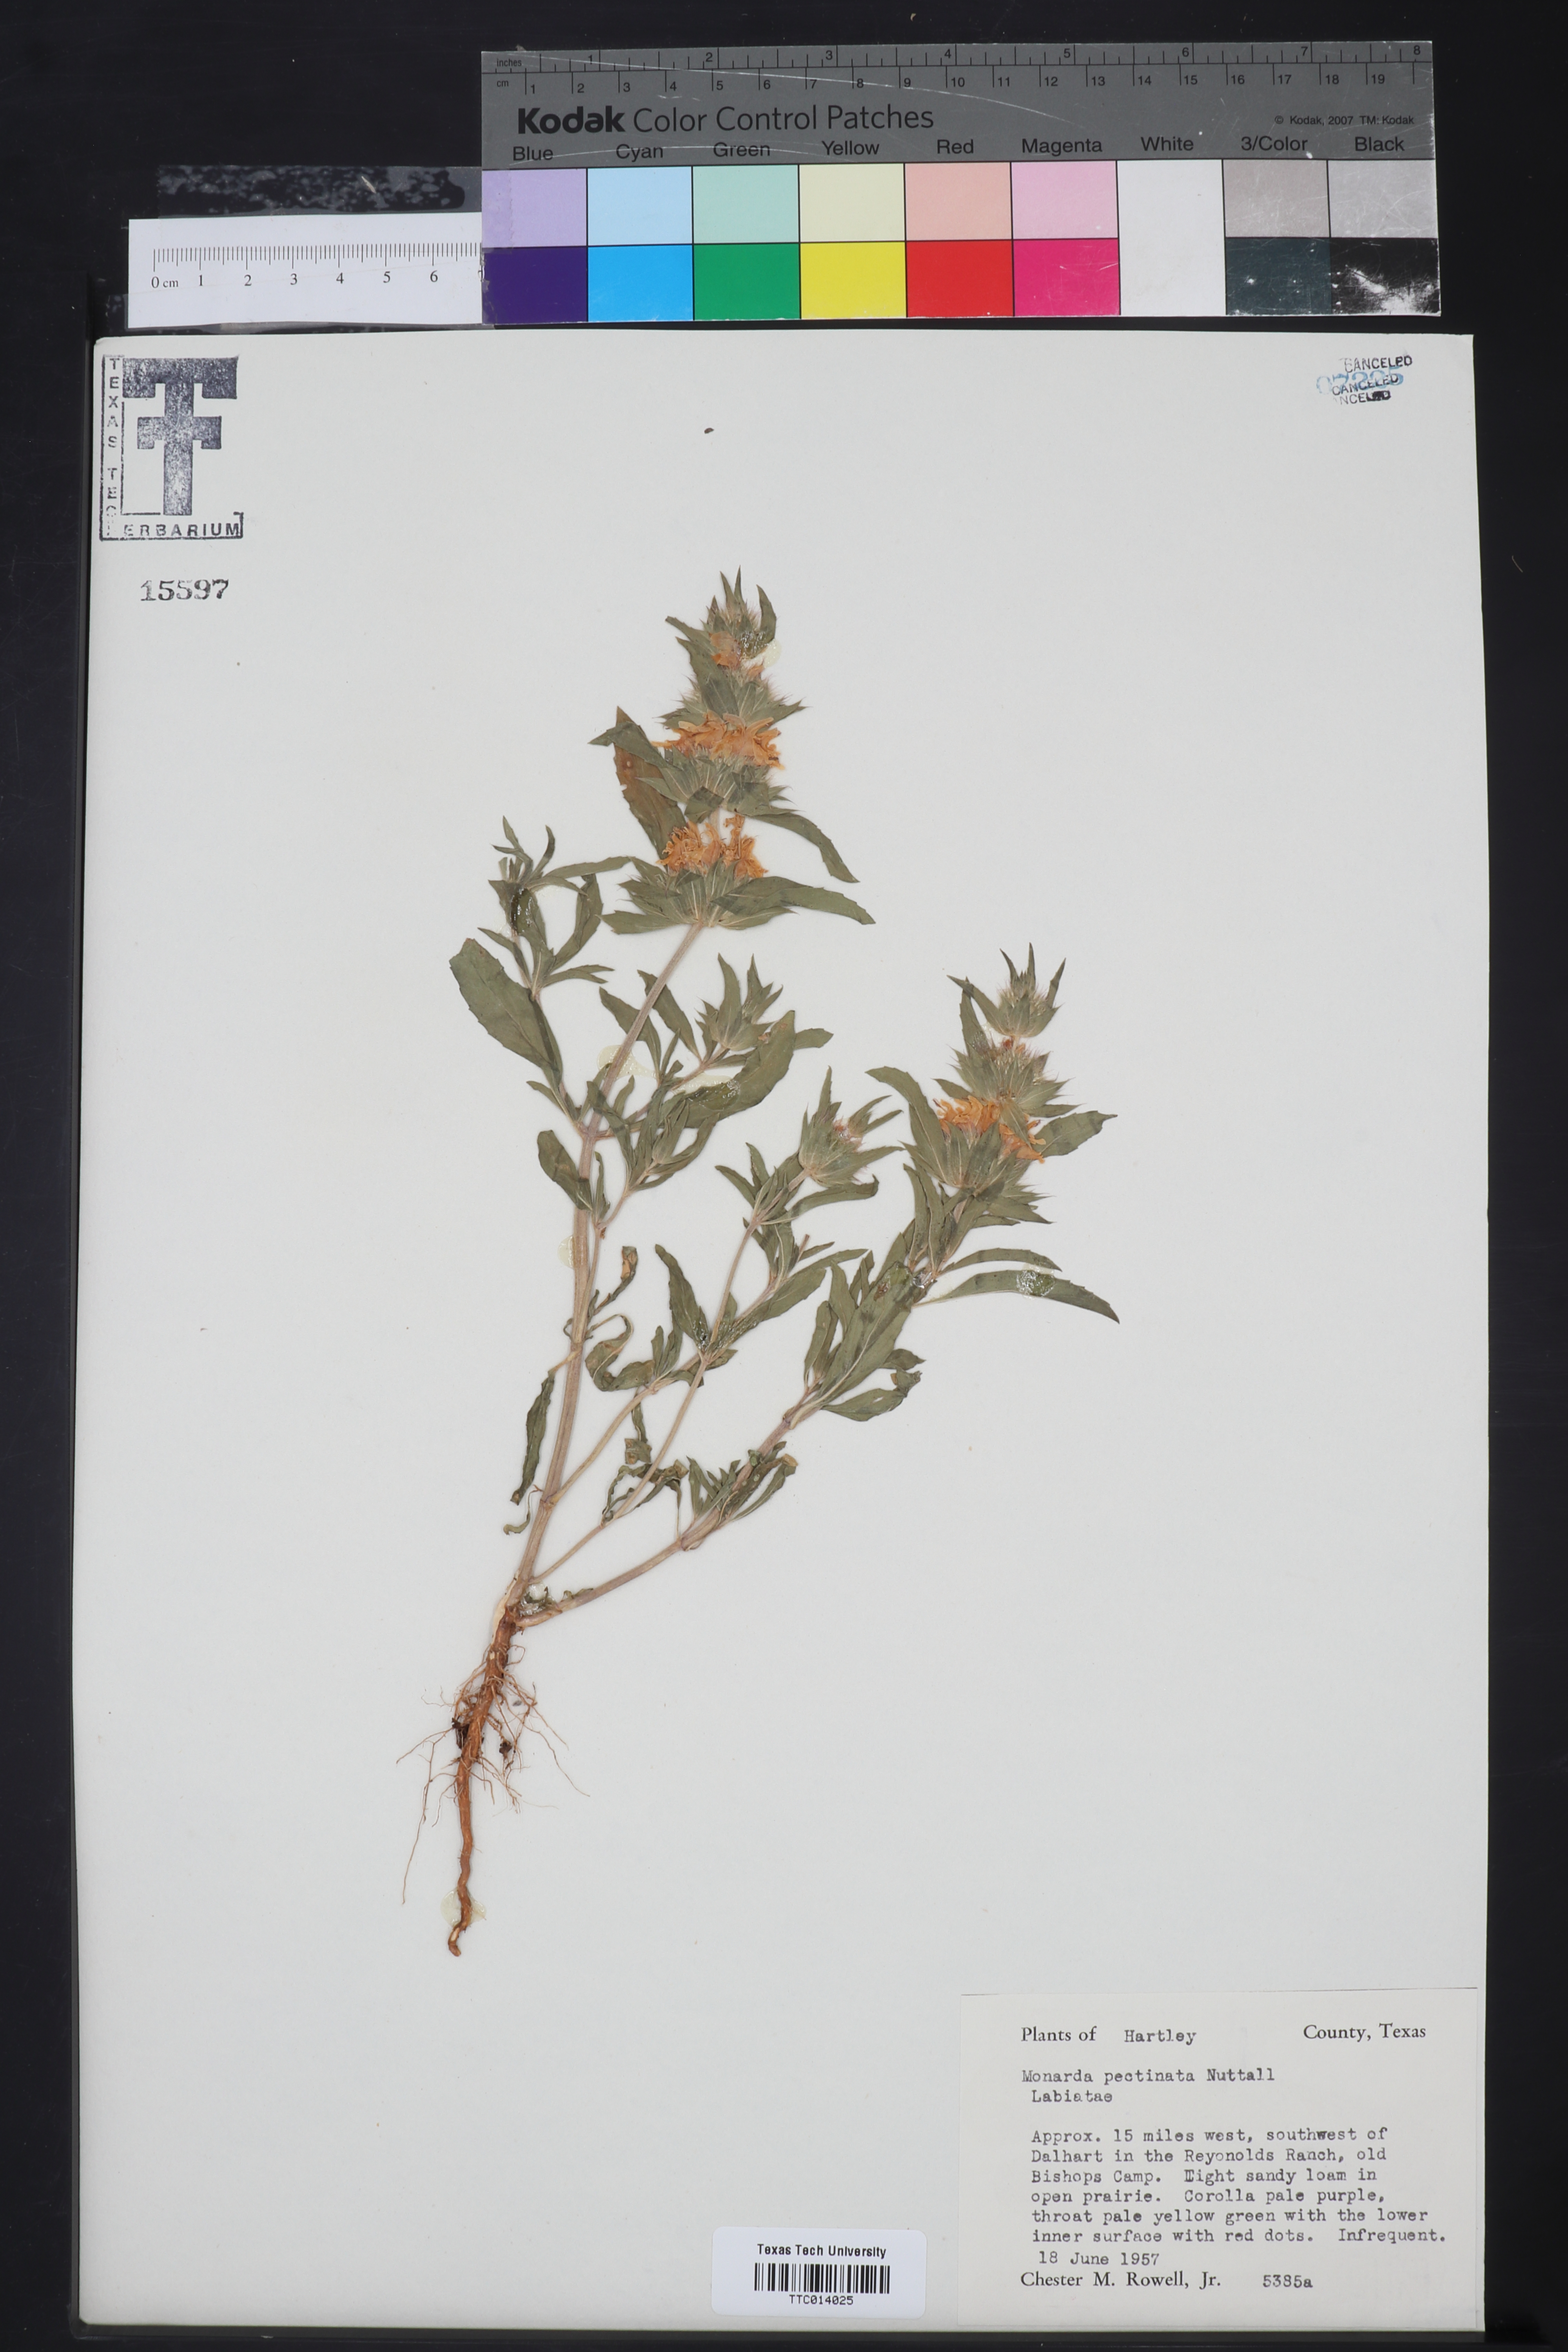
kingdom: Plantae
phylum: Tracheophyta
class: Magnoliopsida
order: Lamiales
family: Lamiaceae
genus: Monarda
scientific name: Monarda pectinata
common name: Plains beebalm
